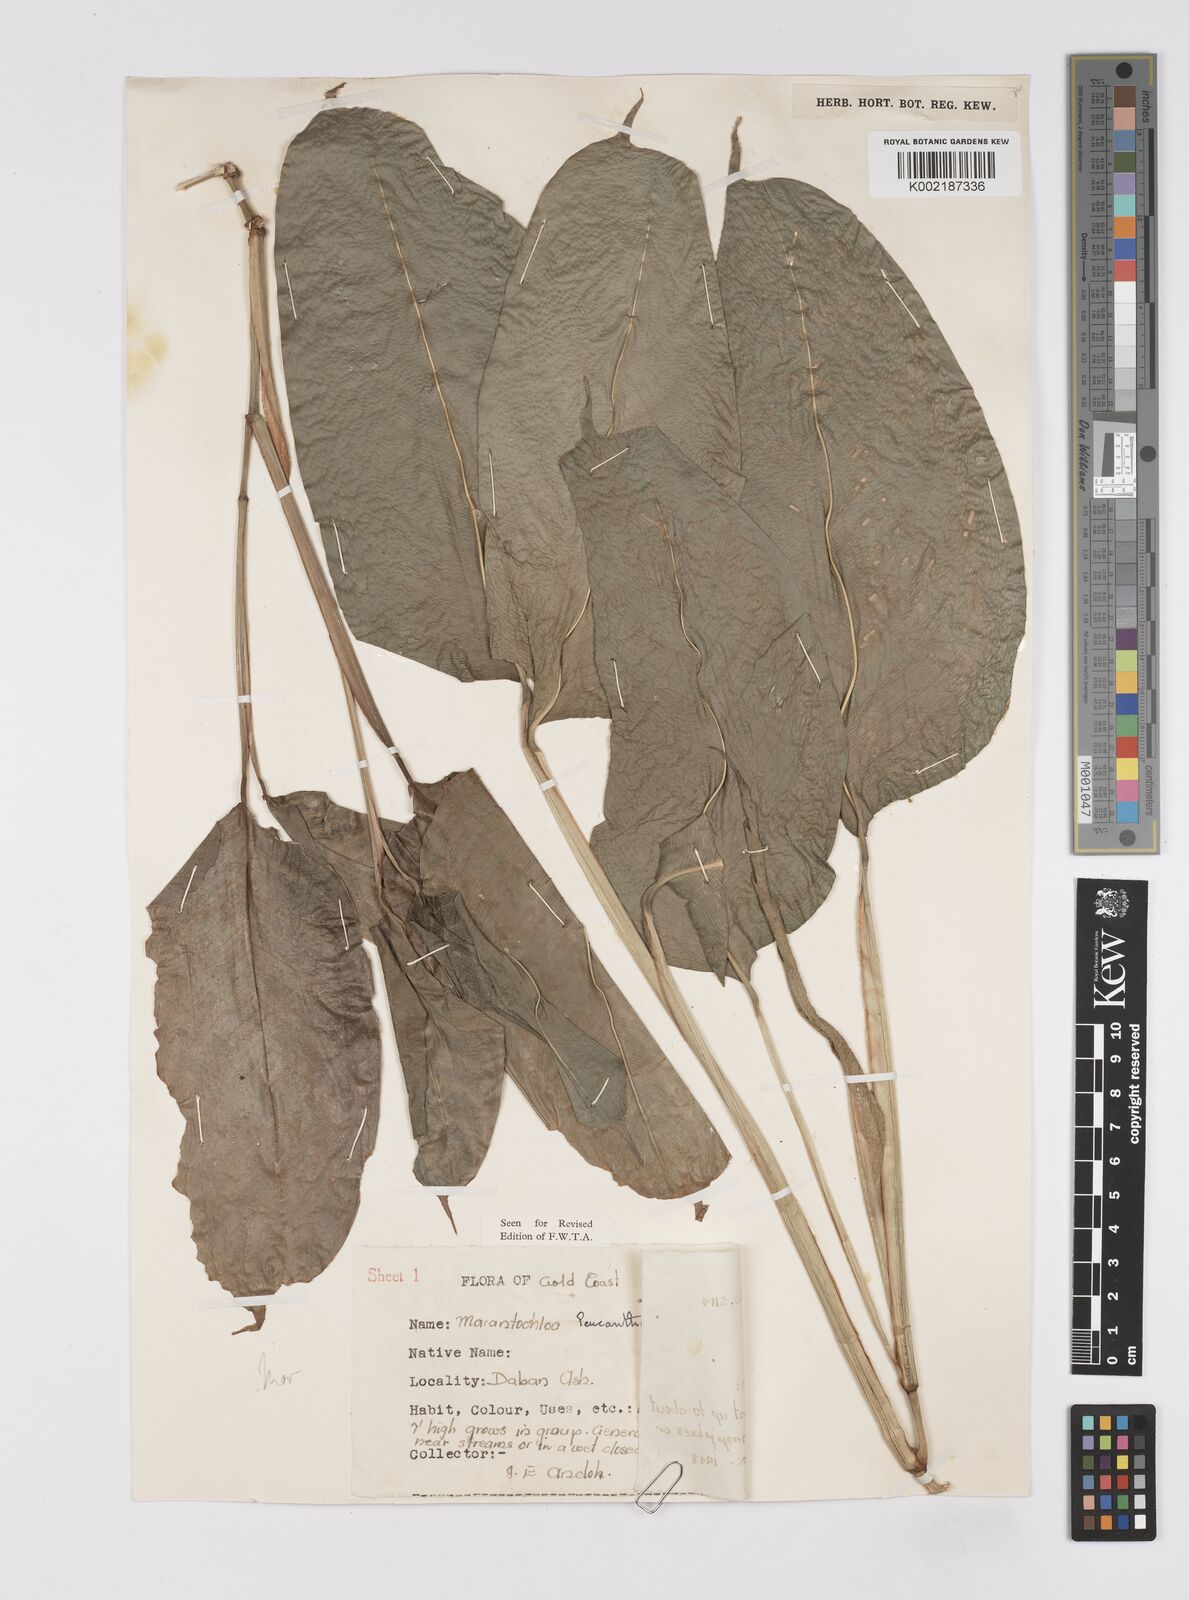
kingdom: Plantae
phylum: Tracheophyta
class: Liliopsida
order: Zingiberales
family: Marantaceae
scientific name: Marantaceae
